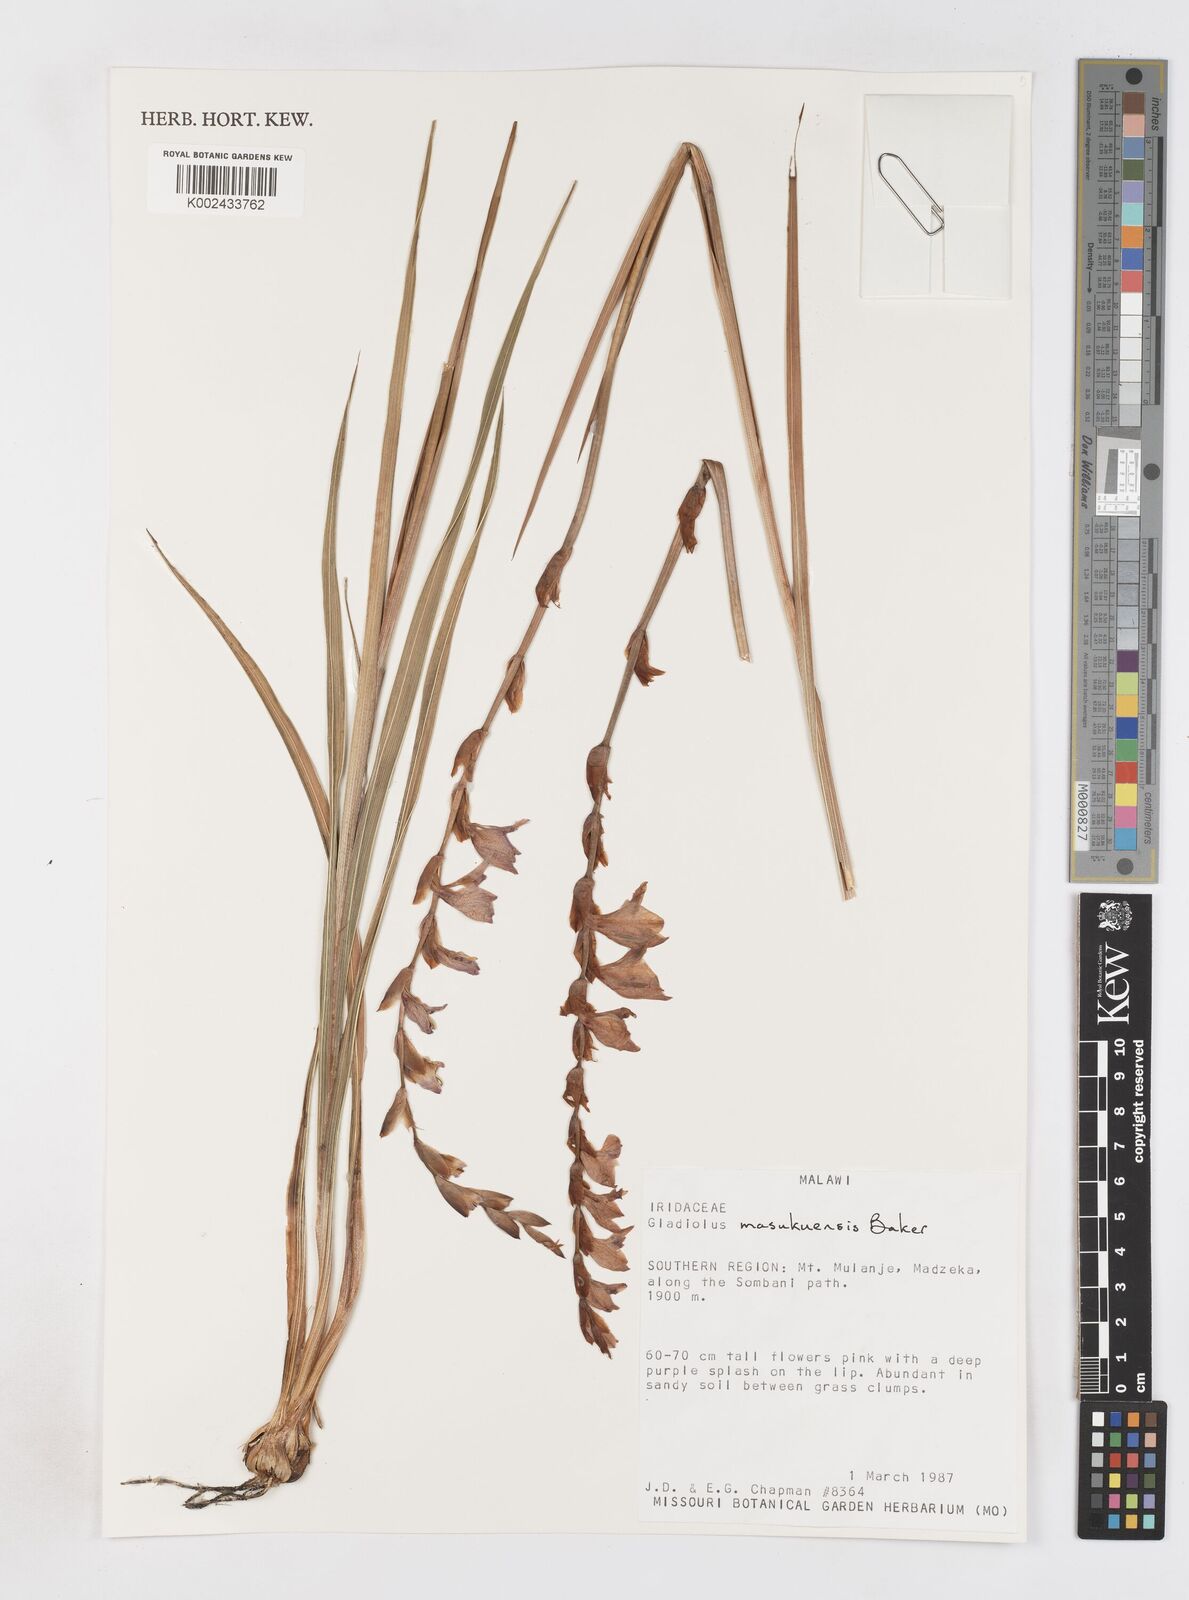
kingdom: Plantae
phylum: Tracheophyta
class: Liliopsida
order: Asparagales
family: Iridaceae
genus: Gladiolus
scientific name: Gladiolus crassifolius
